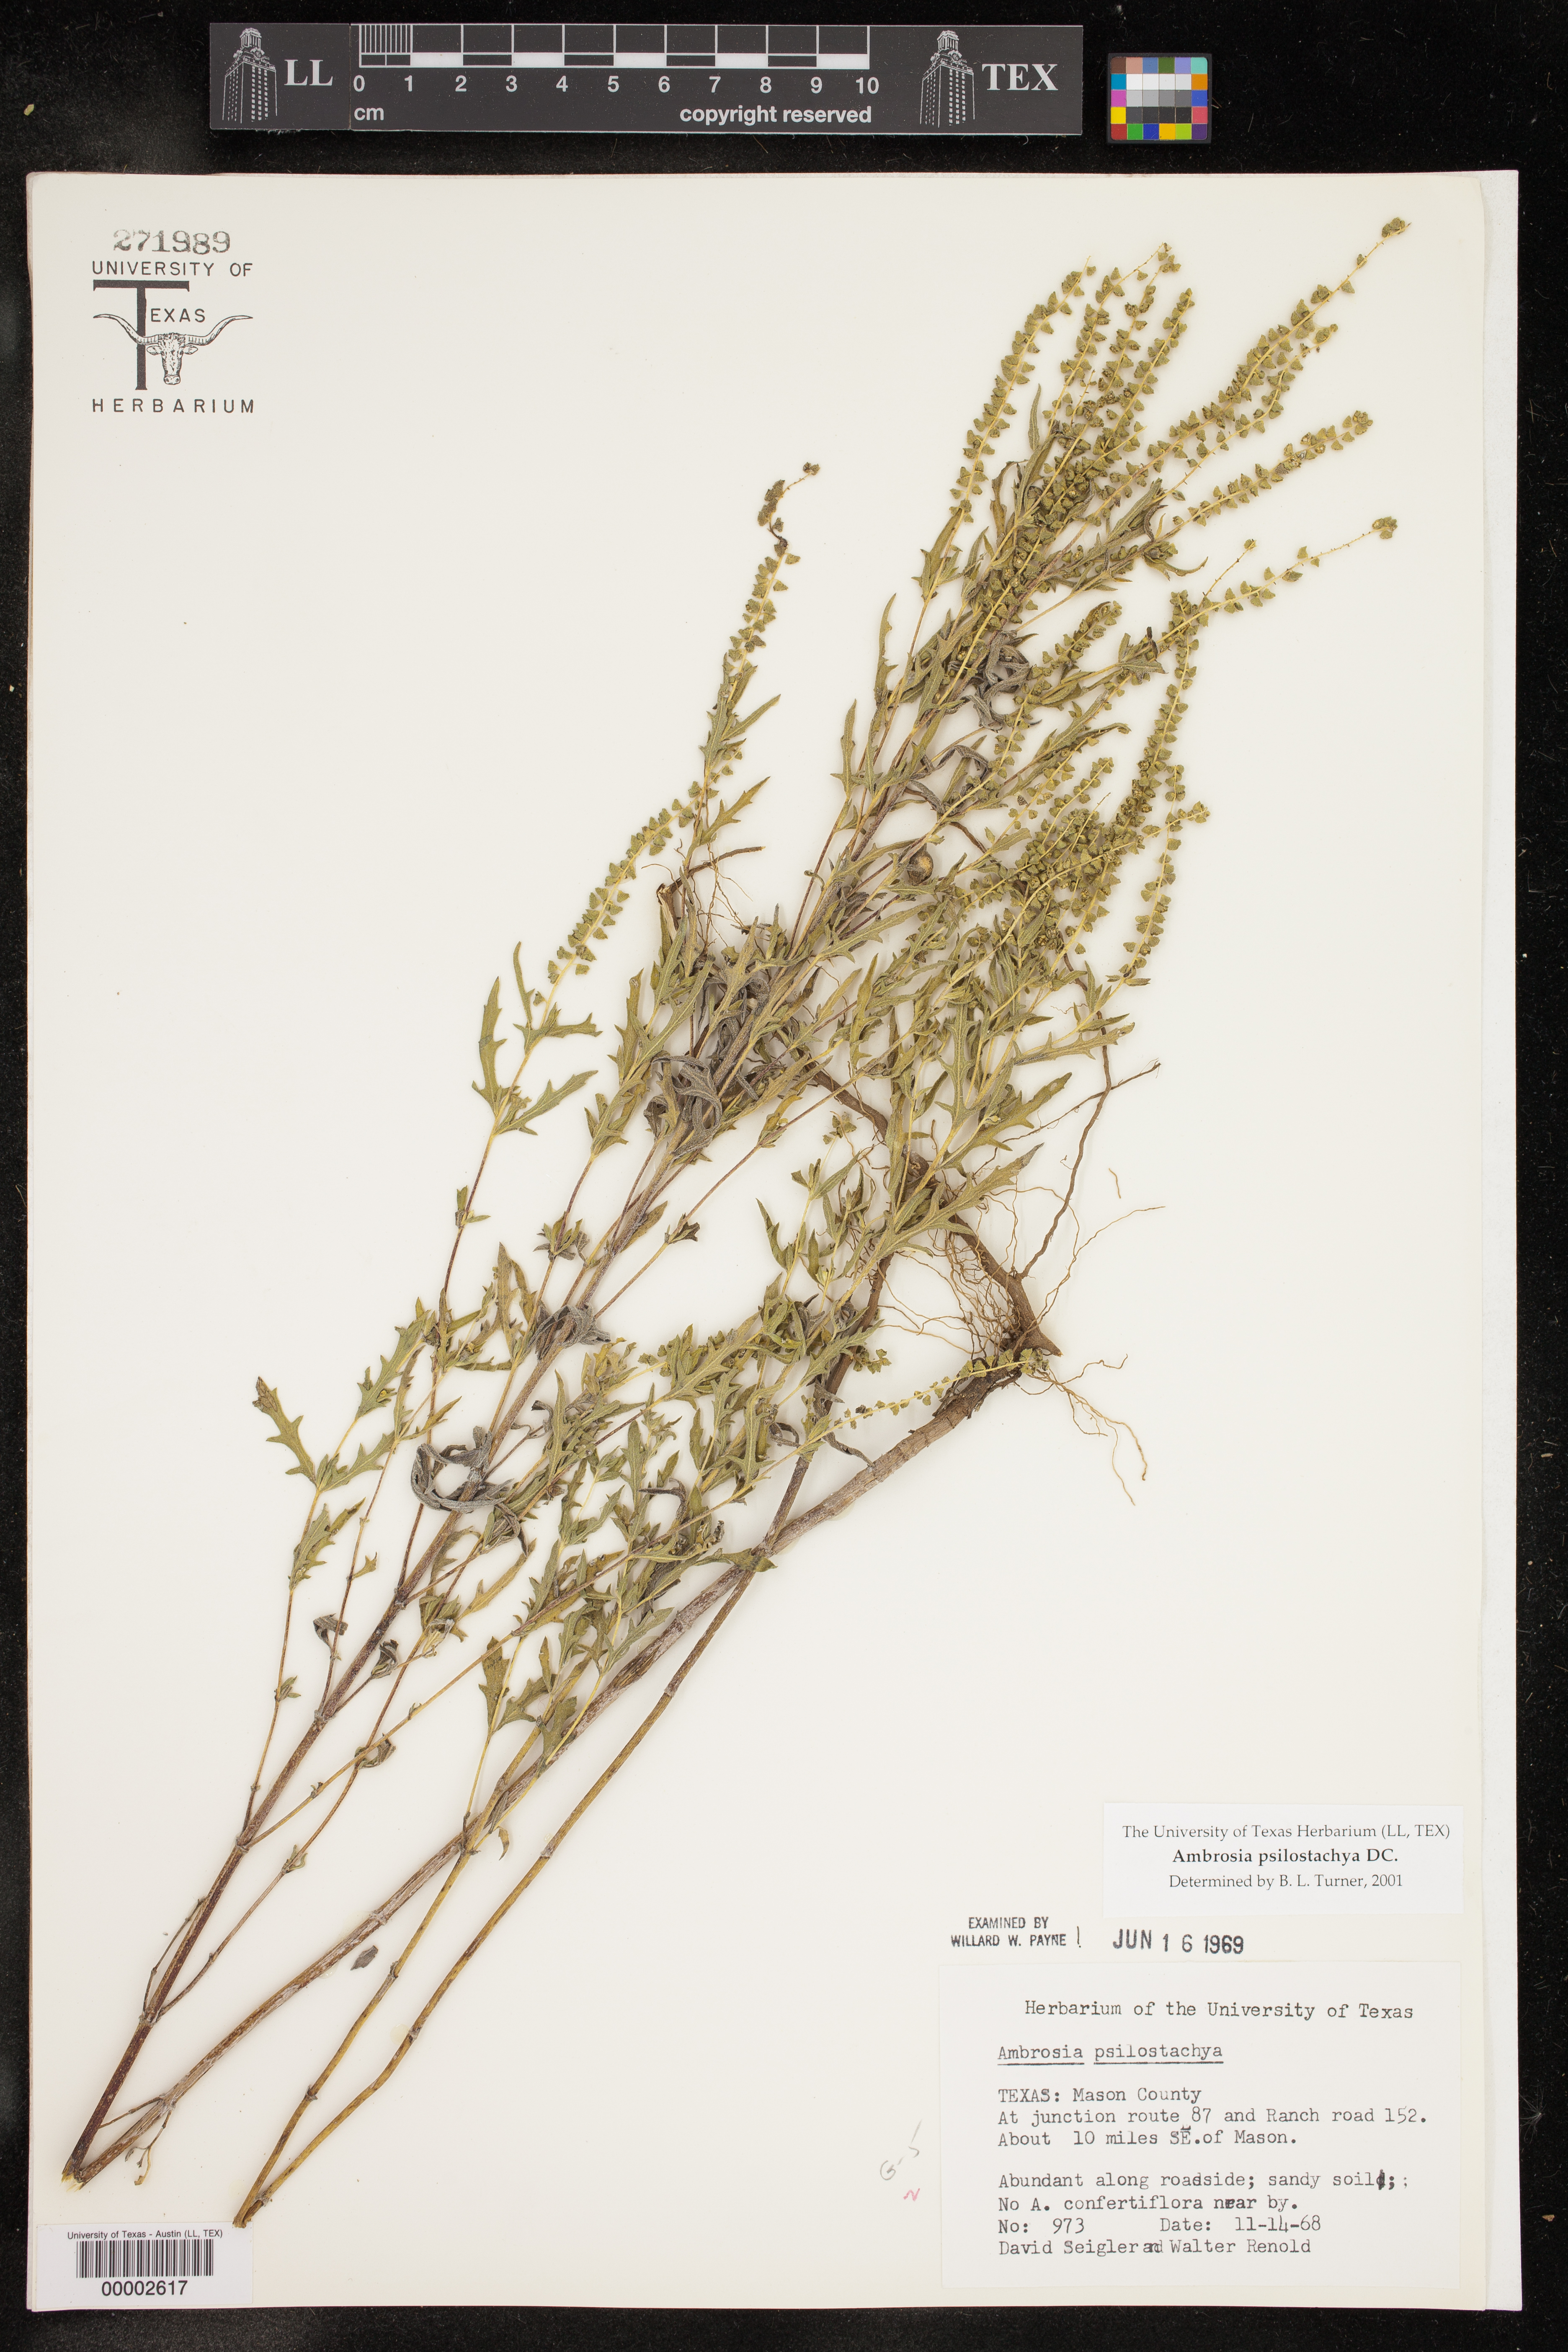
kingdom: Plantae
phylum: Tracheophyta
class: Magnoliopsida
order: Asterales
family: Asteraceae
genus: Ambrosia
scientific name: Ambrosia psilostachya
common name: Perennial ragweed
